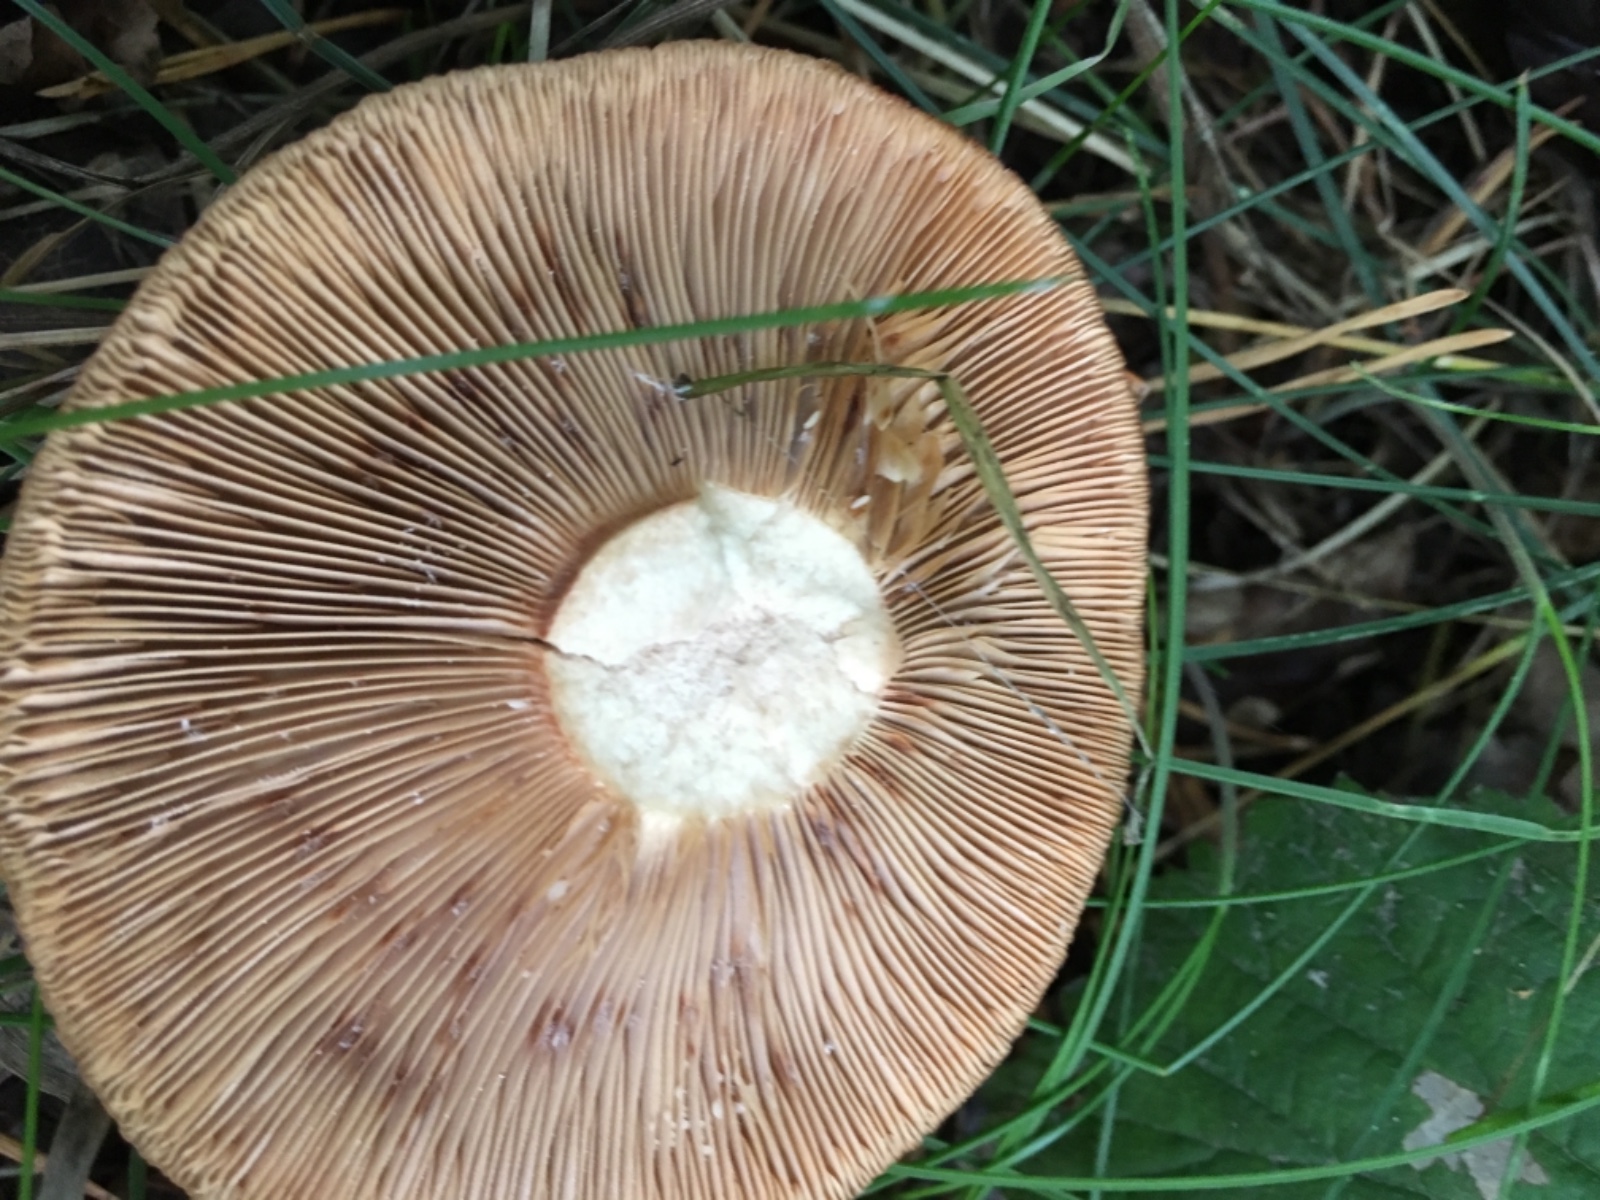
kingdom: Fungi
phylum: Basidiomycota
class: Agaricomycetes
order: Russulales
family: Russulaceae
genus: Lactarius
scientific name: Lactarius quietus
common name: ege-mælkehat
